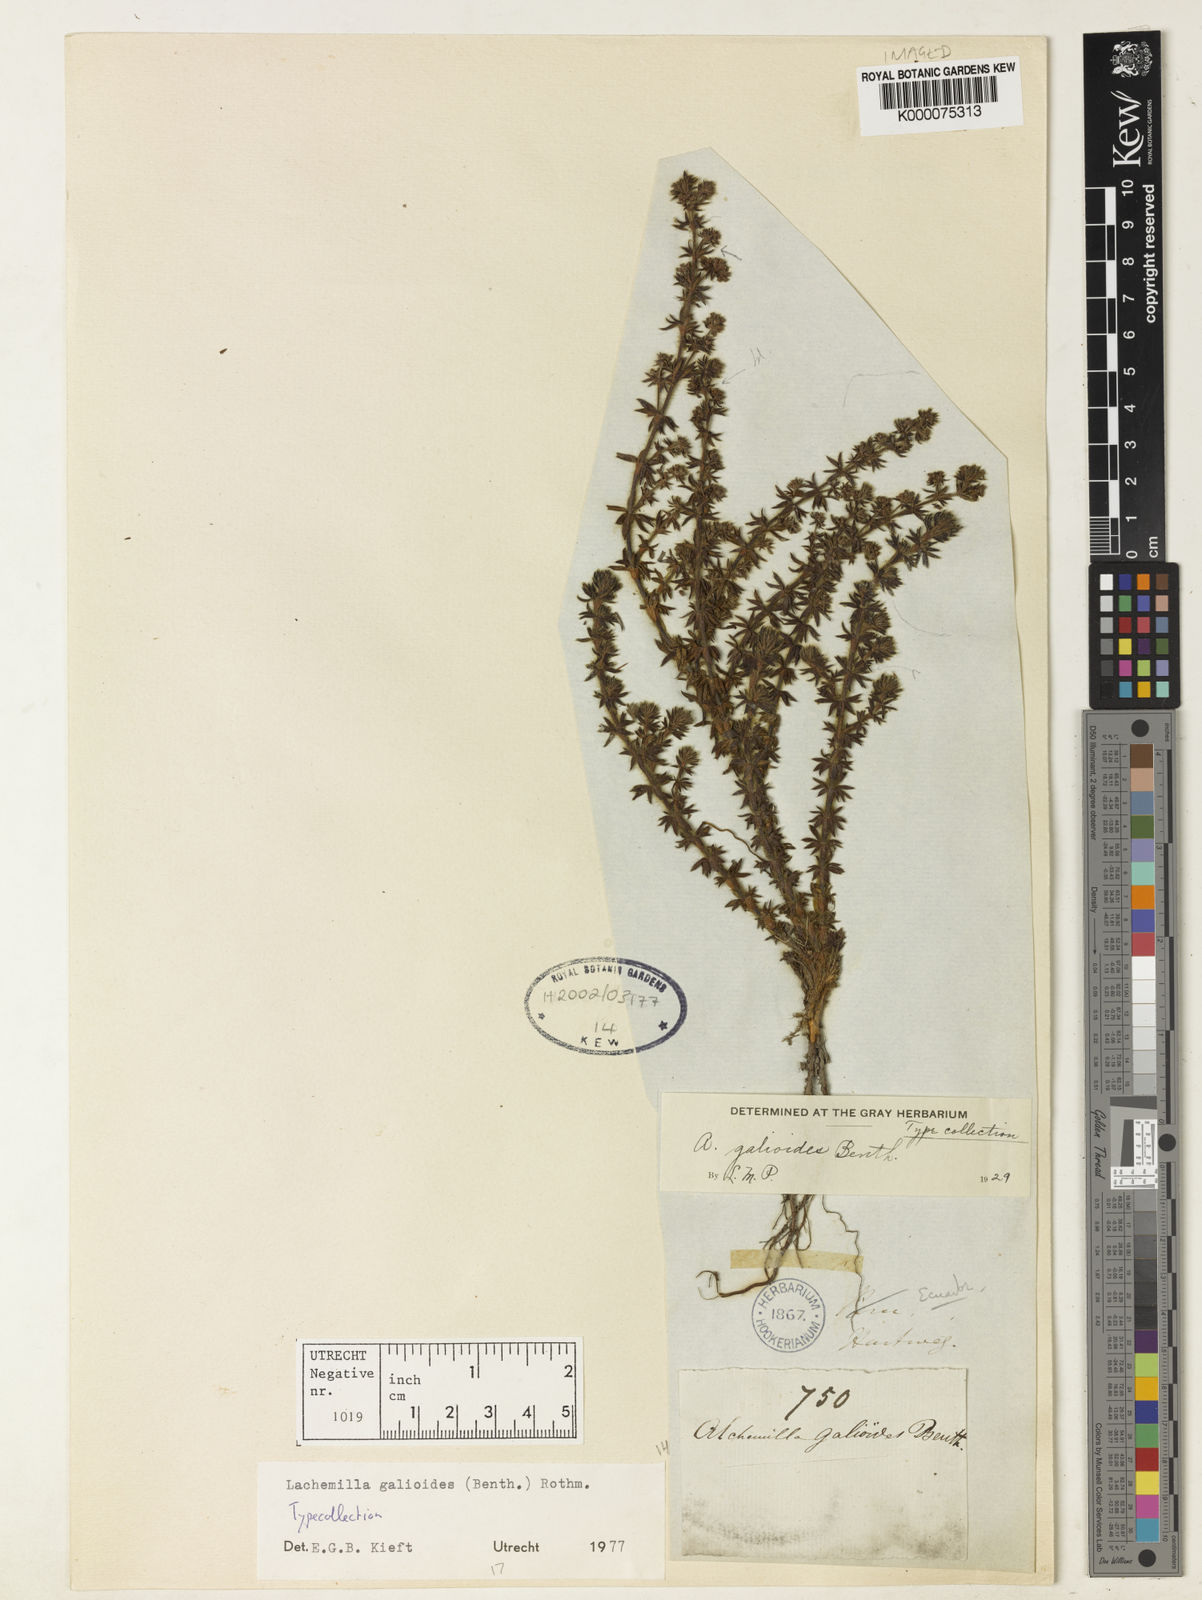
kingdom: Plantae
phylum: Tracheophyta
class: Magnoliopsida
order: Rosales
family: Rosaceae
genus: Lachemilla
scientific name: Lachemilla galioides
